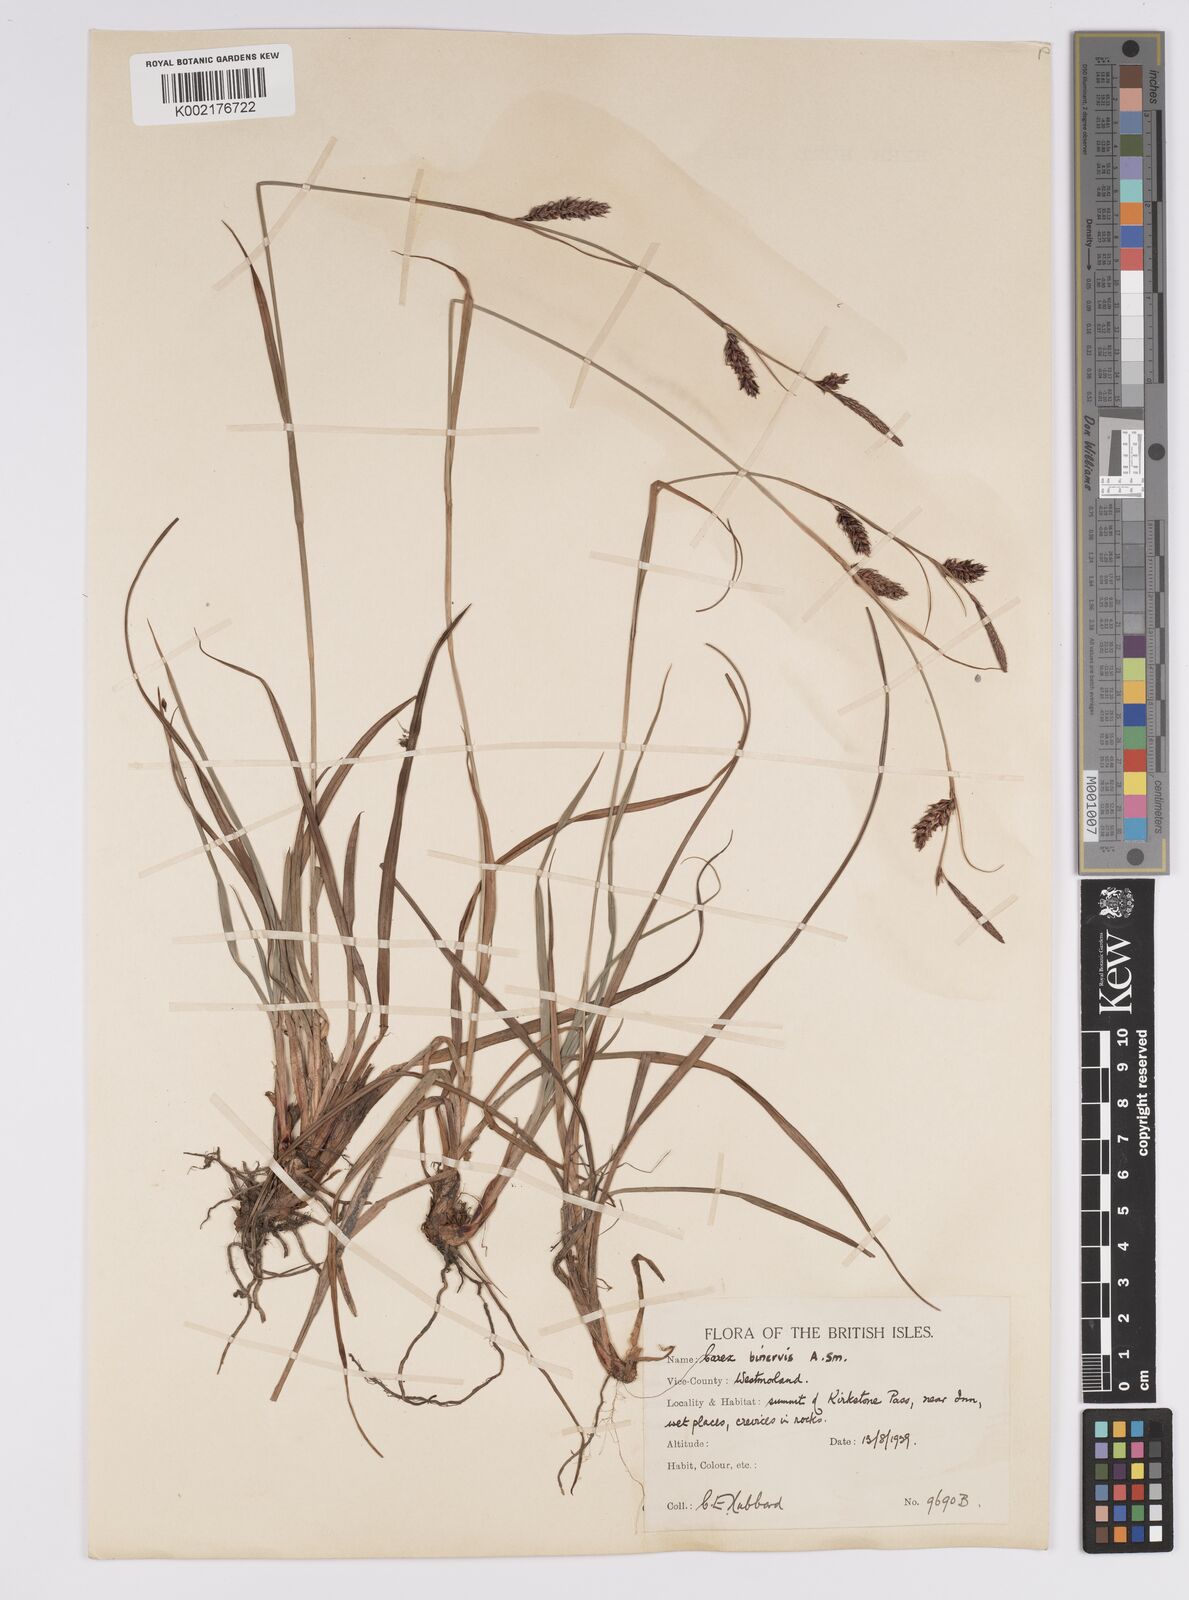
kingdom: Plantae
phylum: Tracheophyta
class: Liliopsida
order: Poales
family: Cyperaceae
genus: Carex
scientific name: Carex binervis
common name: Green-ribbed sedge
